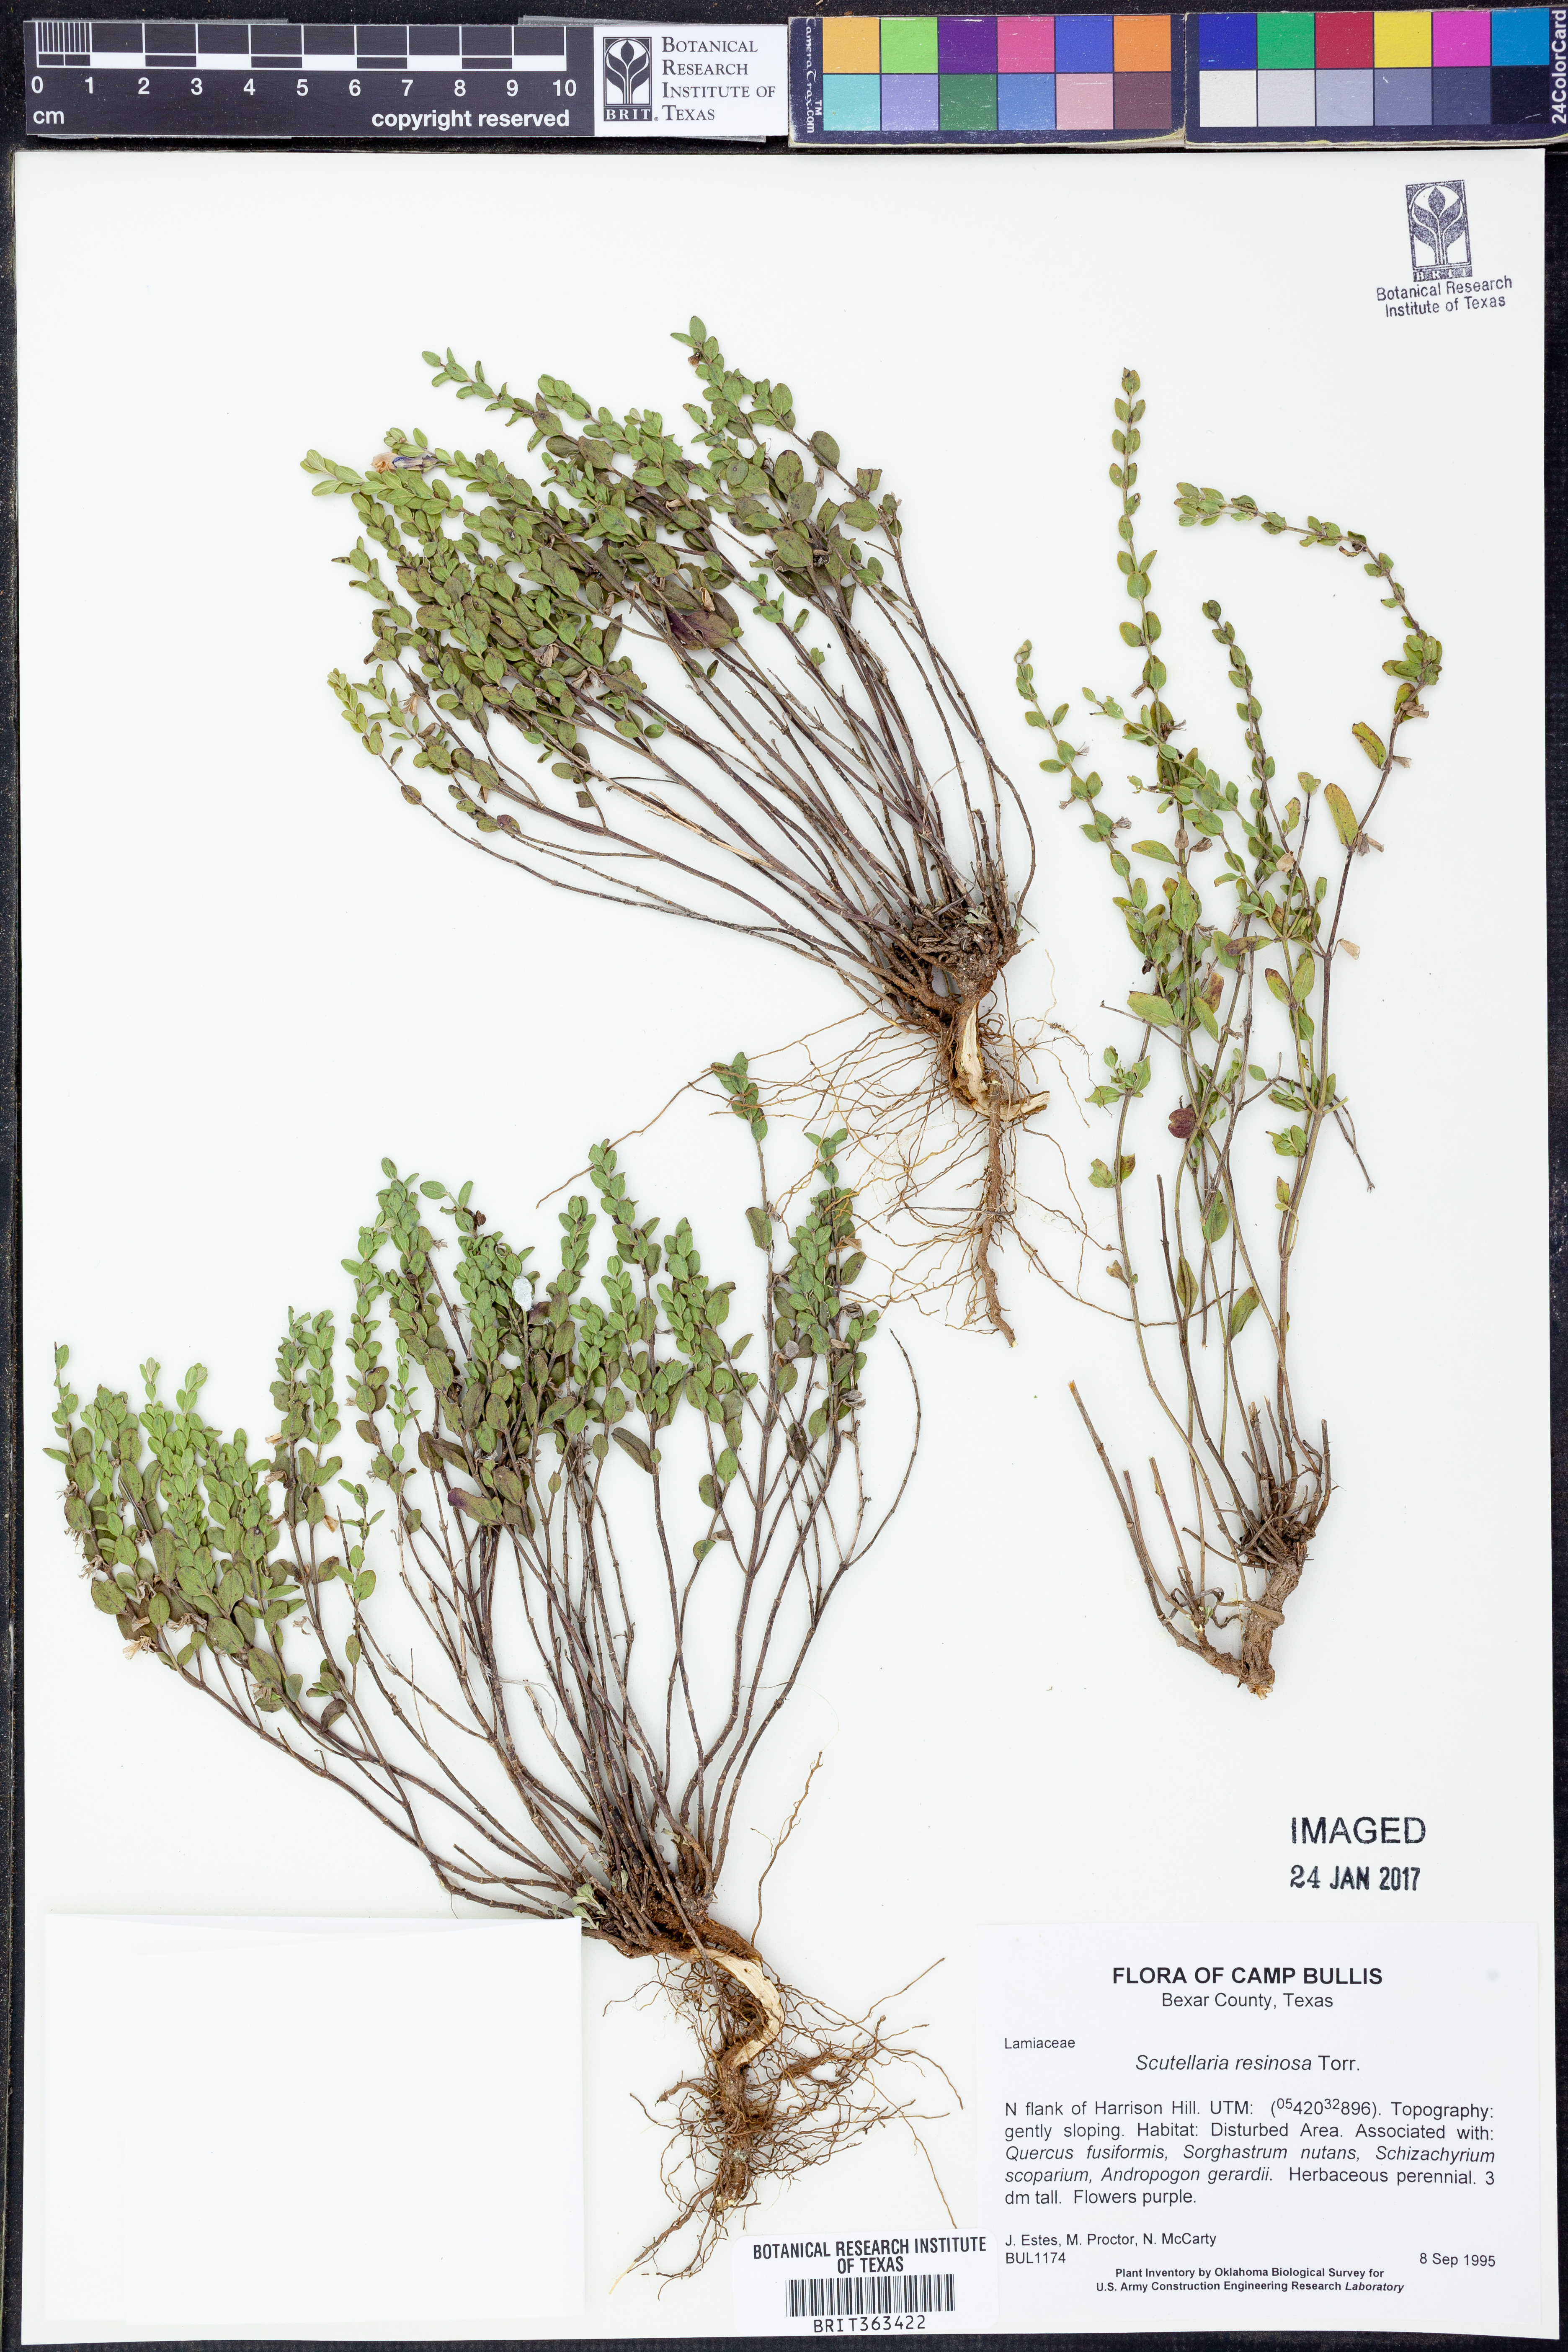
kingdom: Plantae
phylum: Tracheophyta
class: Magnoliopsida
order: Lamiales
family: Lamiaceae
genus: Scutellaria
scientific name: Scutellaria resinosa
